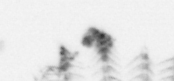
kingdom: Animalia
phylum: Arthropoda
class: Maxillopoda
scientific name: Maxillopoda
